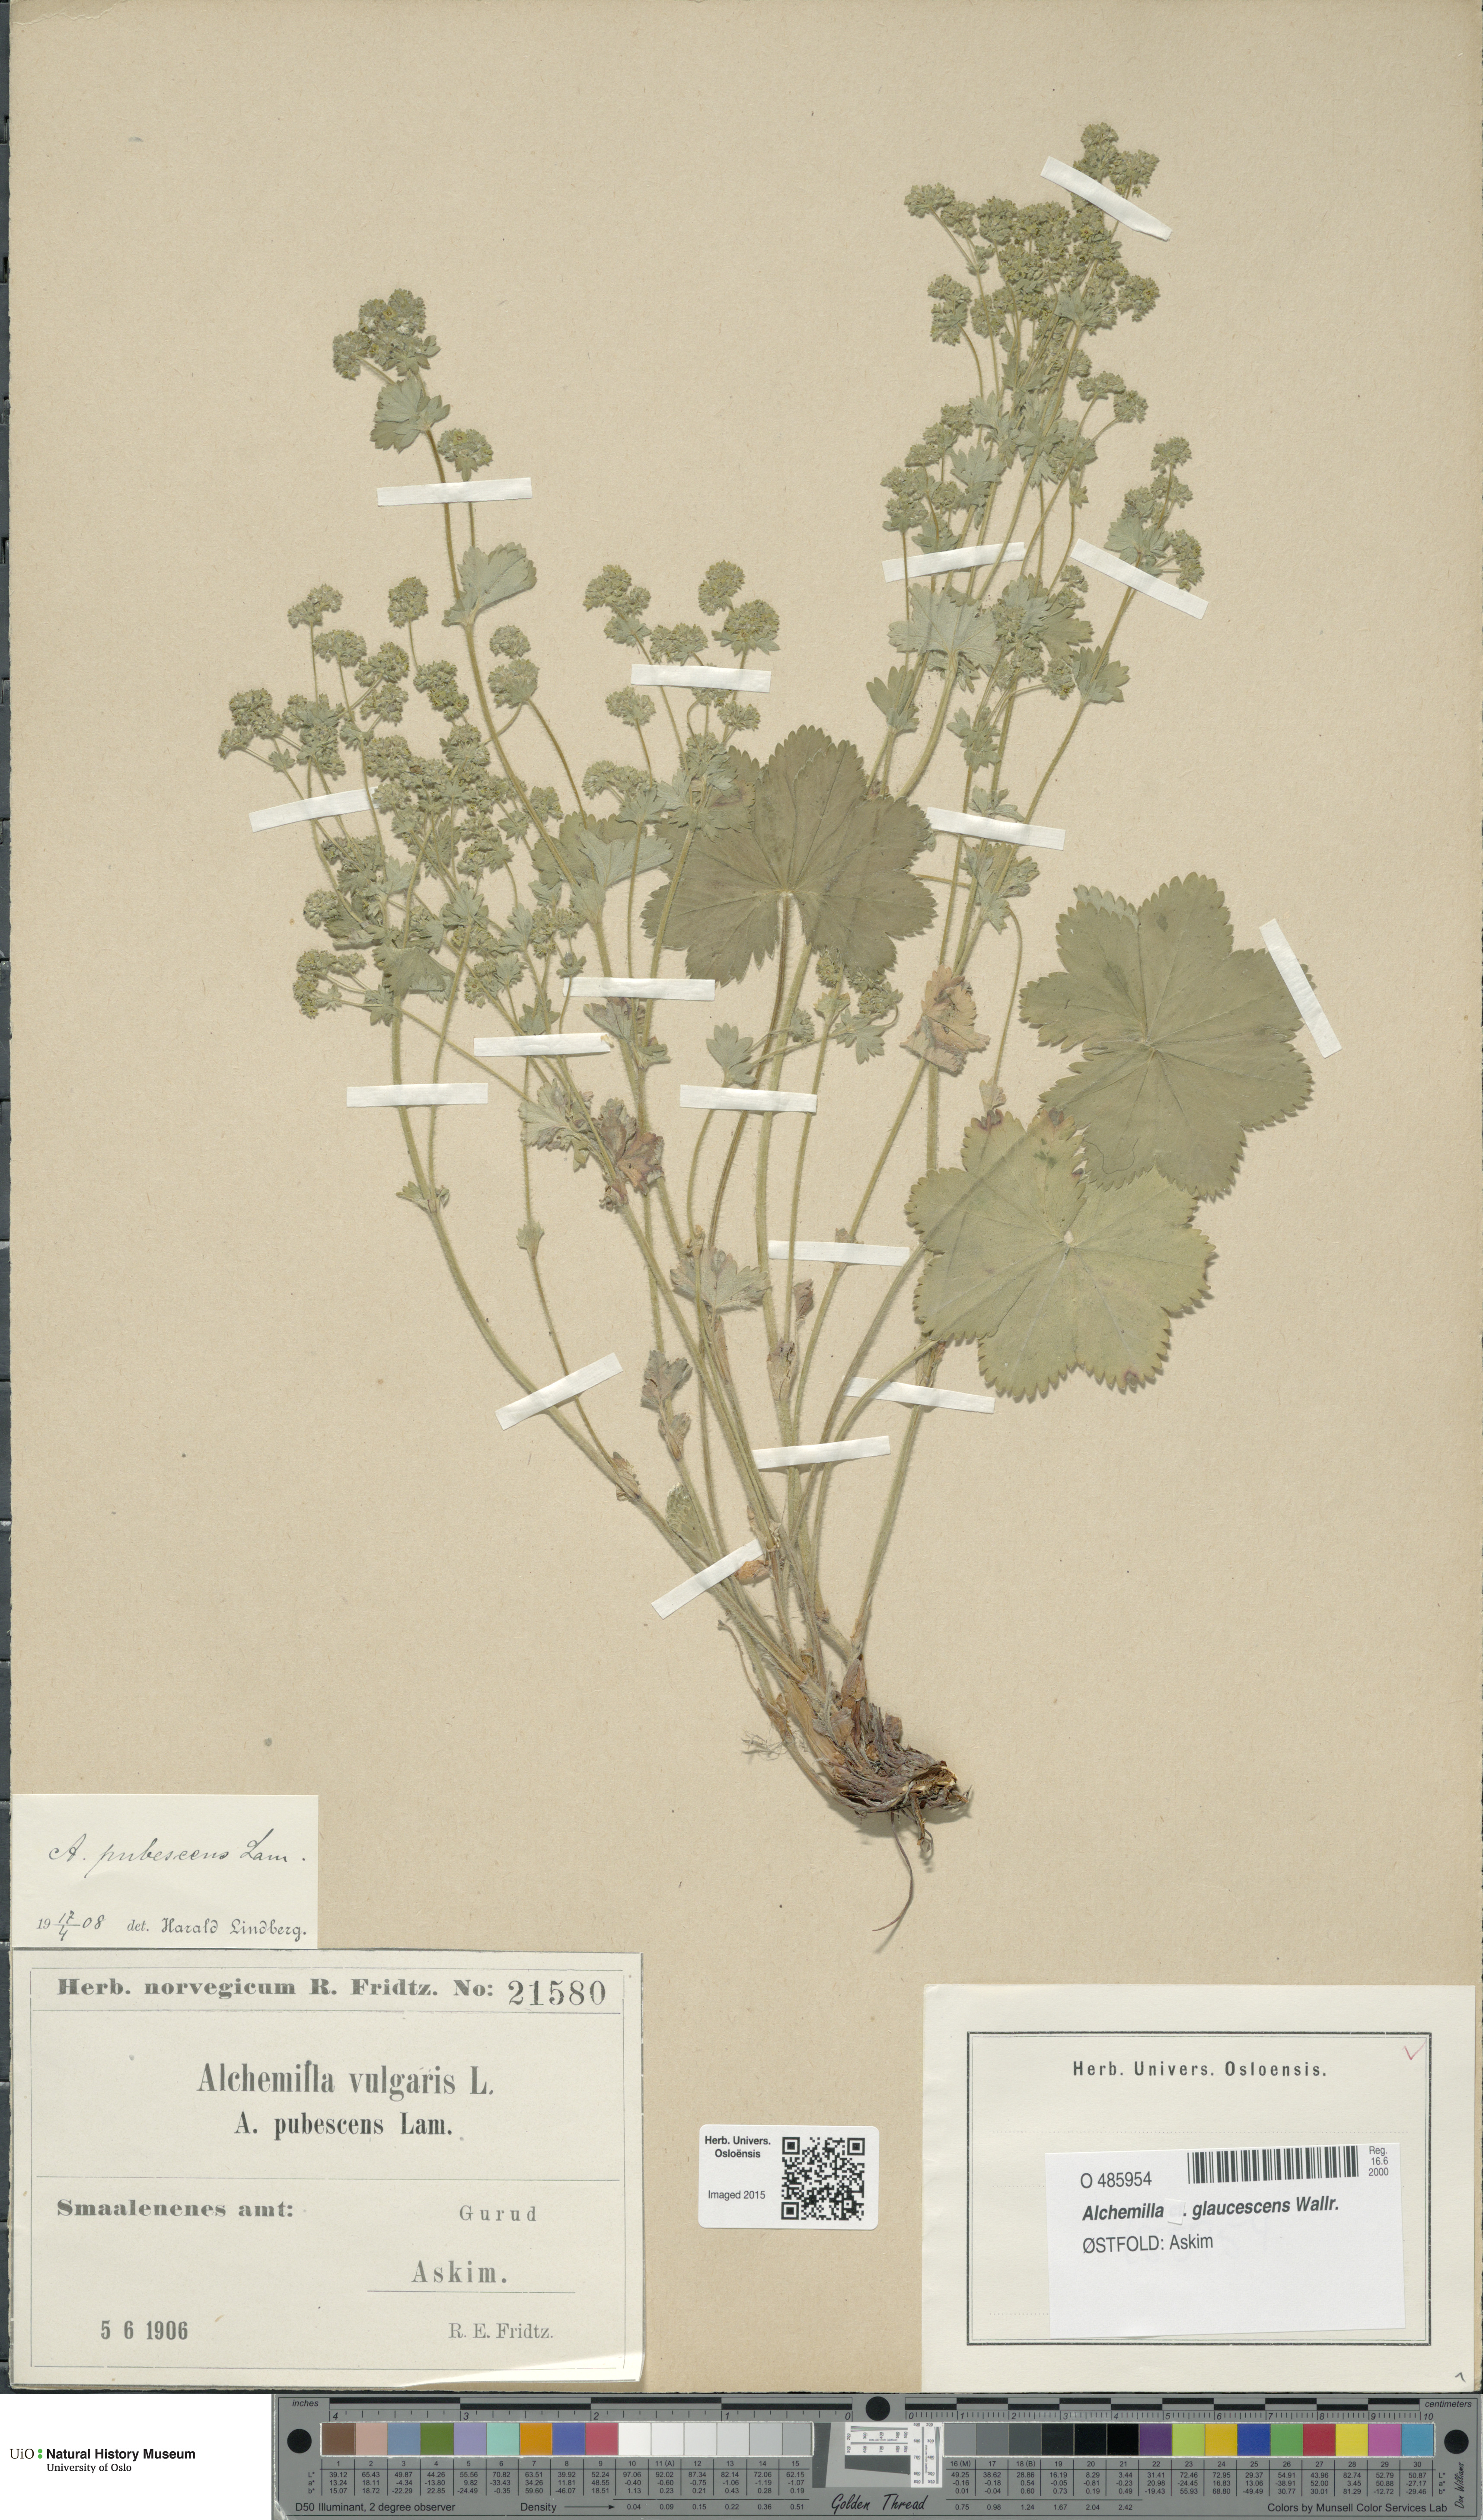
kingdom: Plantae
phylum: Tracheophyta
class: Magnoliopsida
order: Rosales
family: Rosaceae
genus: Alchemilla
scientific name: Alchemilla glaucescens
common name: Silky lady's mantle
